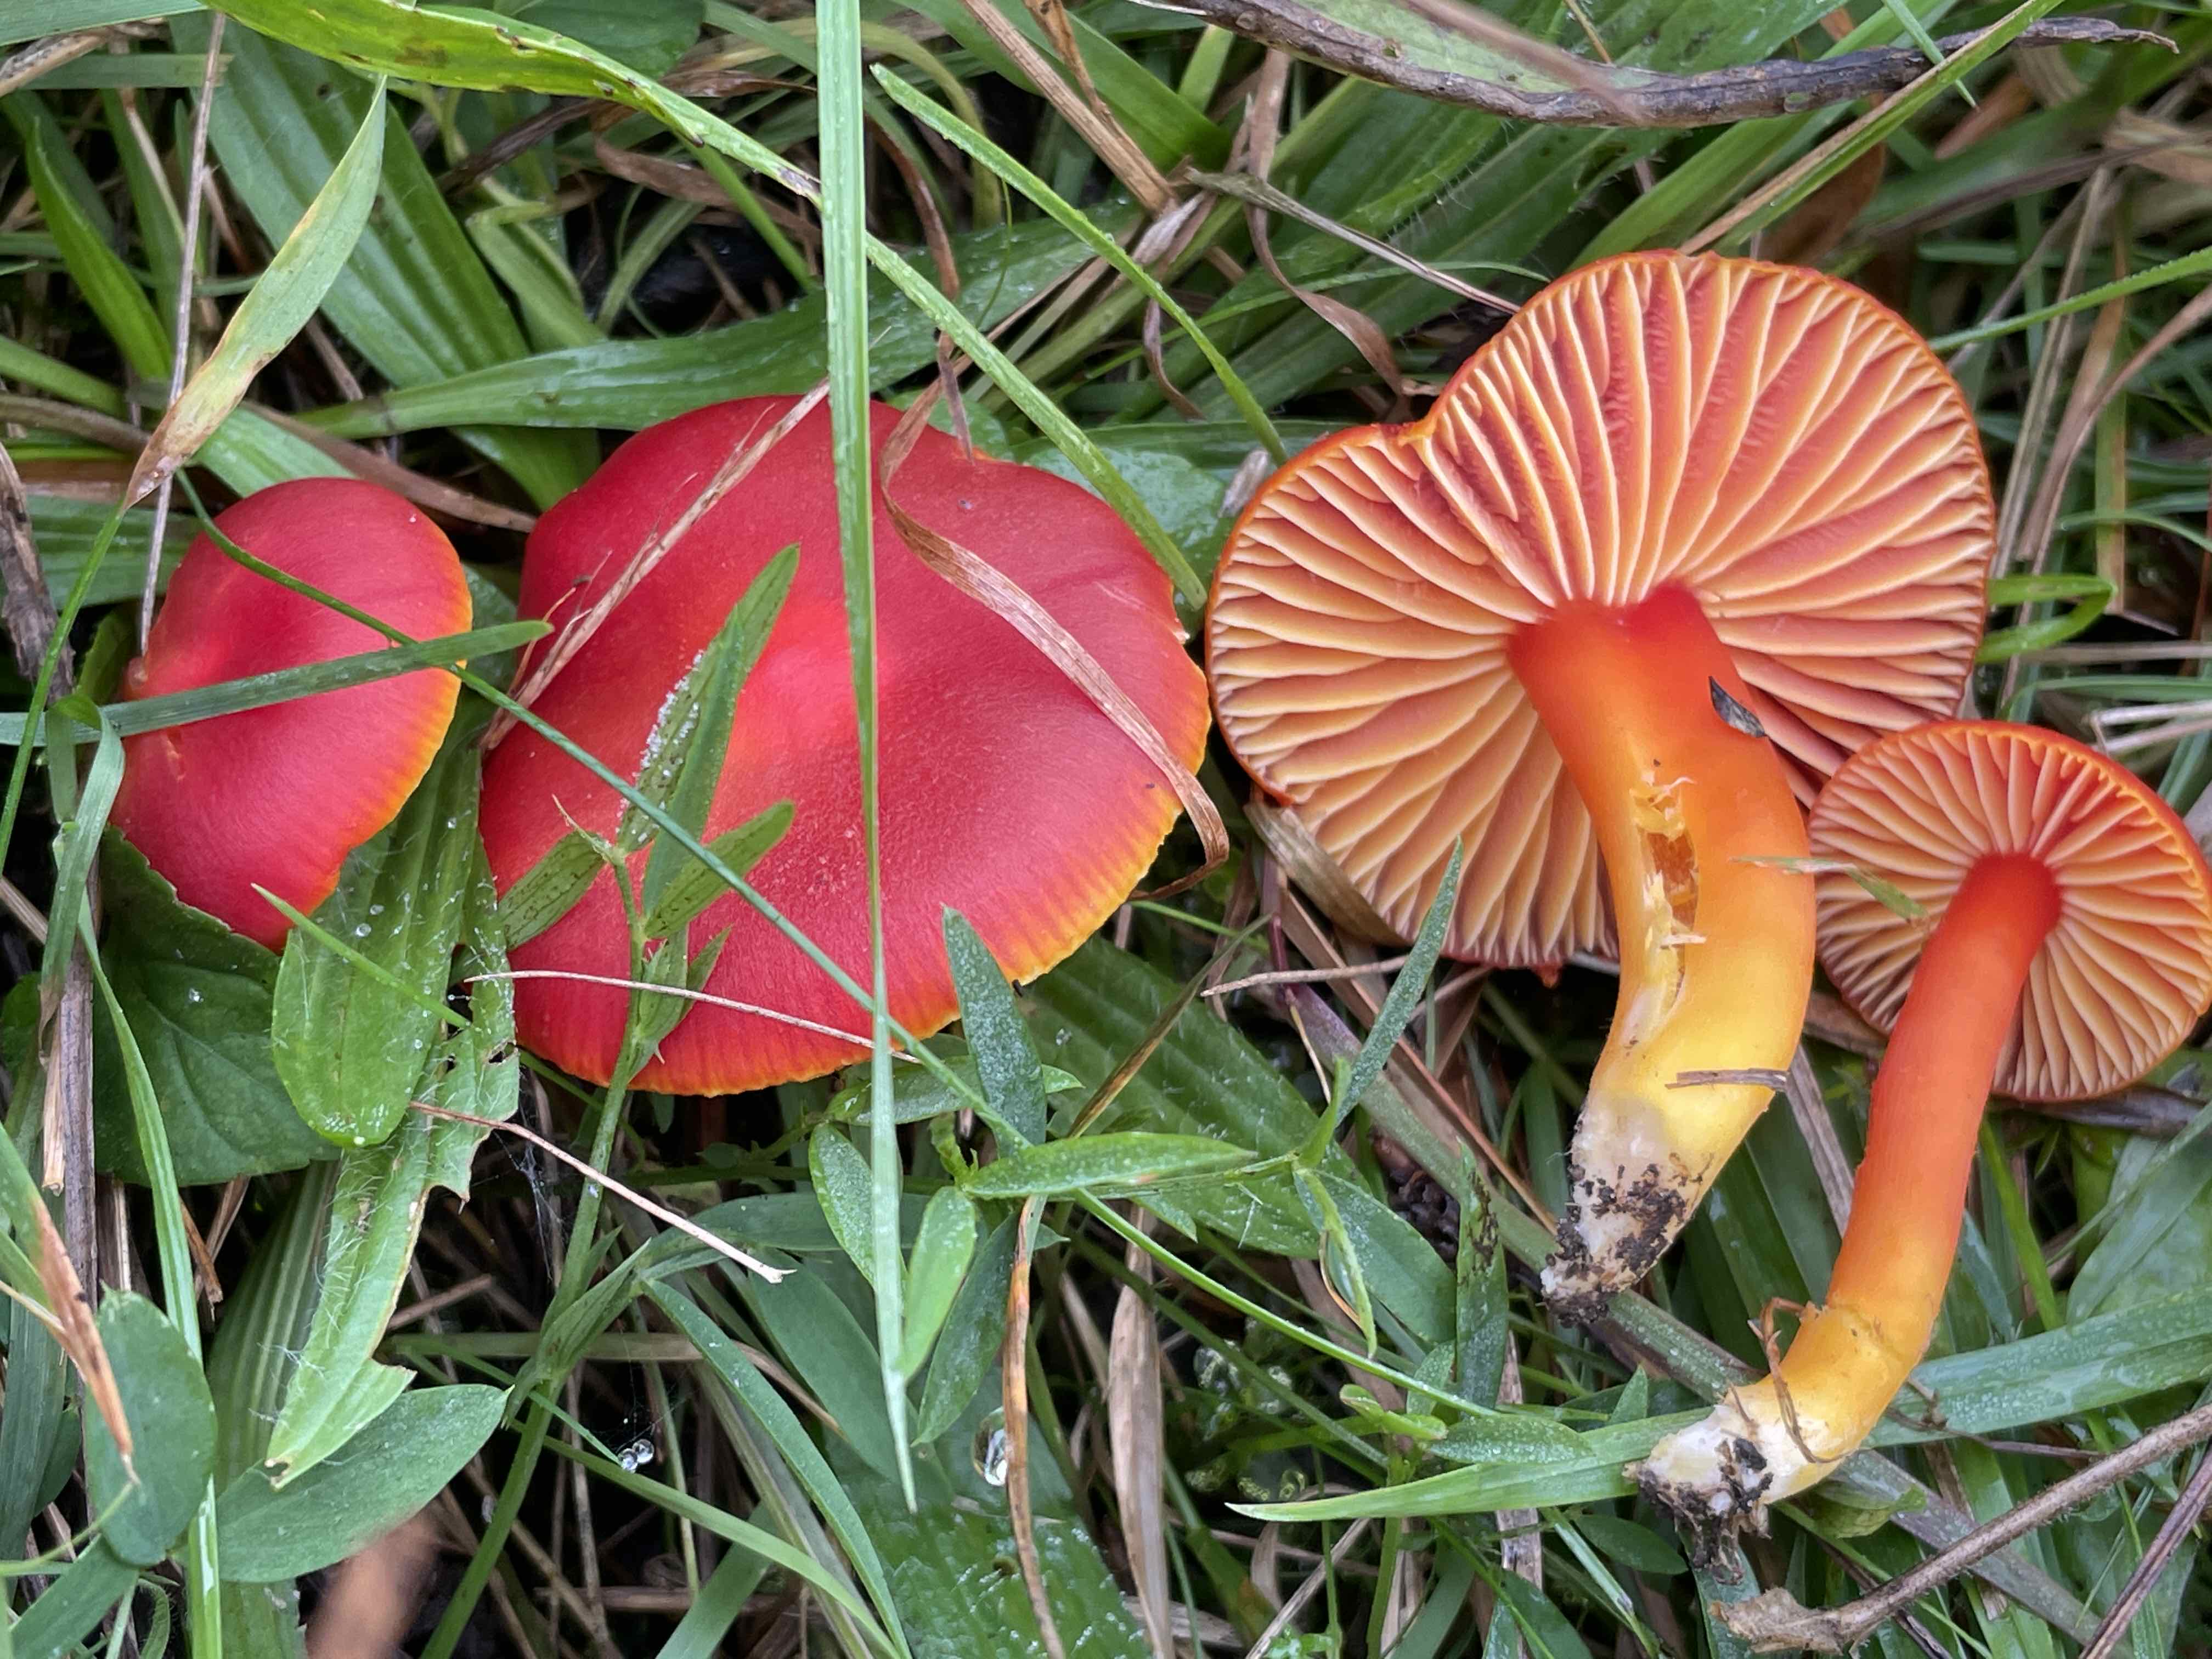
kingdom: Fungi
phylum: Basidiomycota
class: Agaricomycetes
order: Agaricales
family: Hygrophoraceae
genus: Hygrocybe
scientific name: Hygrocybe coccinea
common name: cinnober-vokshat
